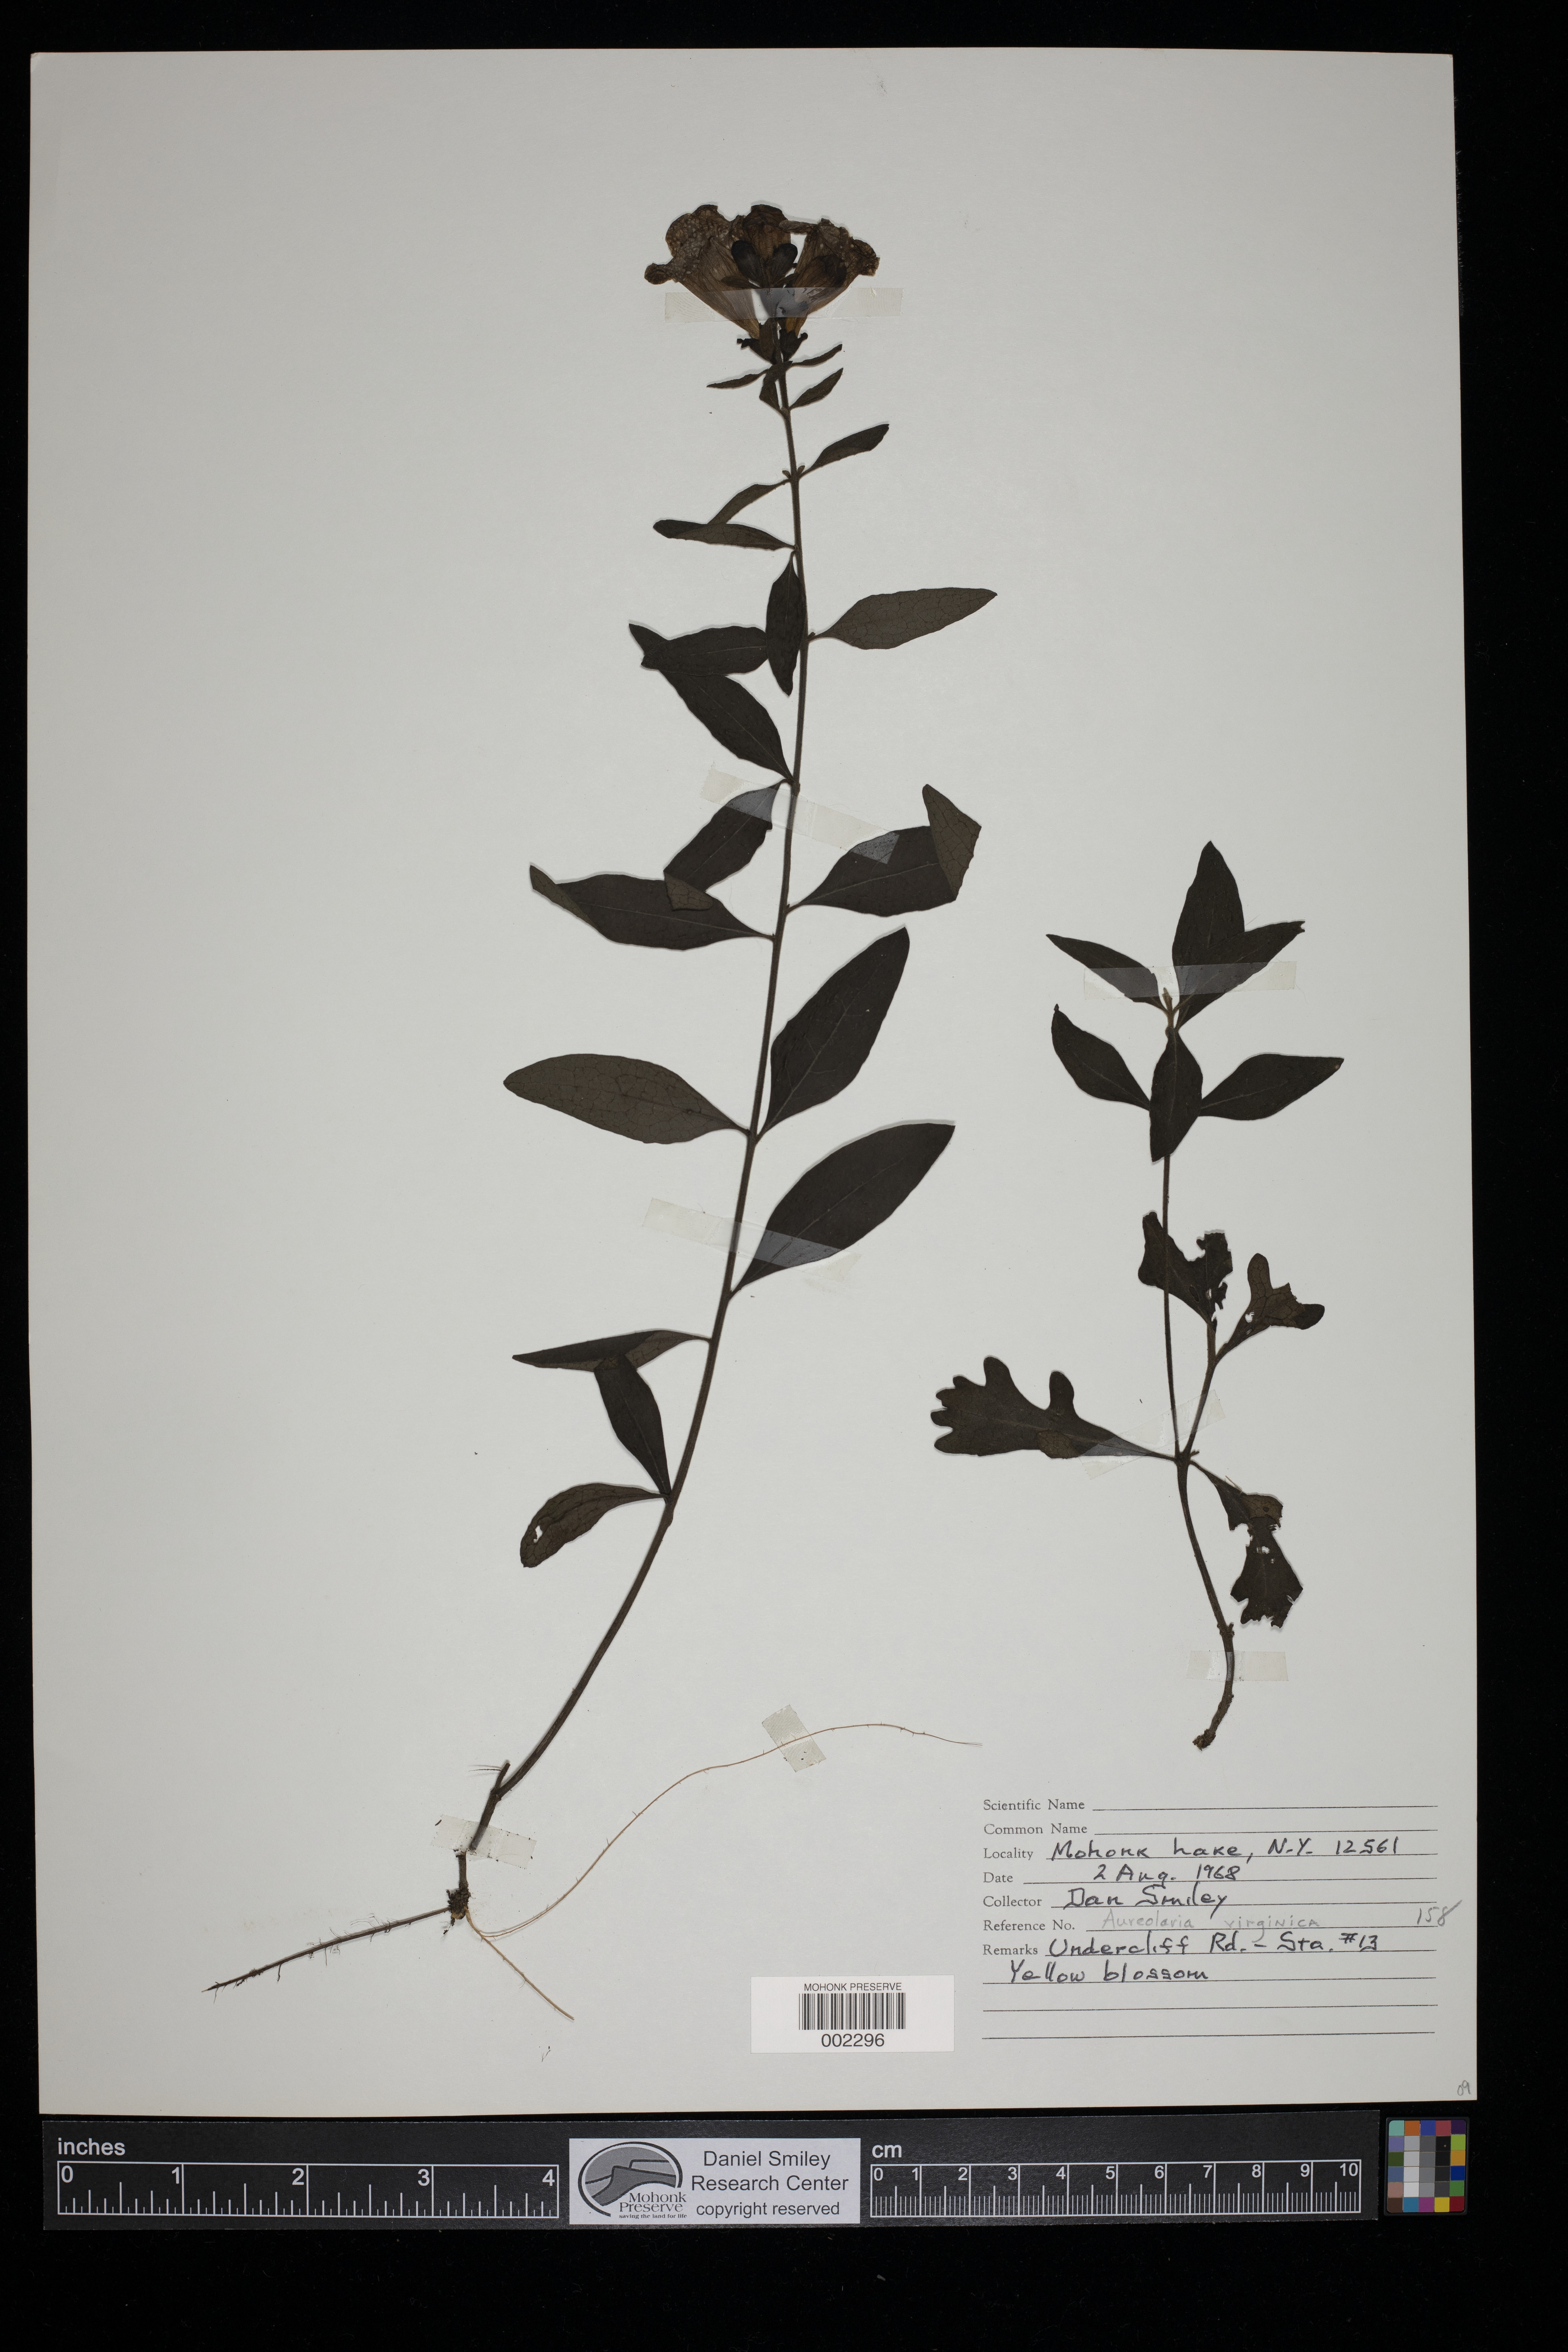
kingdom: Plantae
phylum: Tracheophyta
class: Magnoliopsida
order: Lamiales
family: Orobanchaceae
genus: Aureolaria
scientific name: Aureolaria virginica
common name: Downy false foxglove
